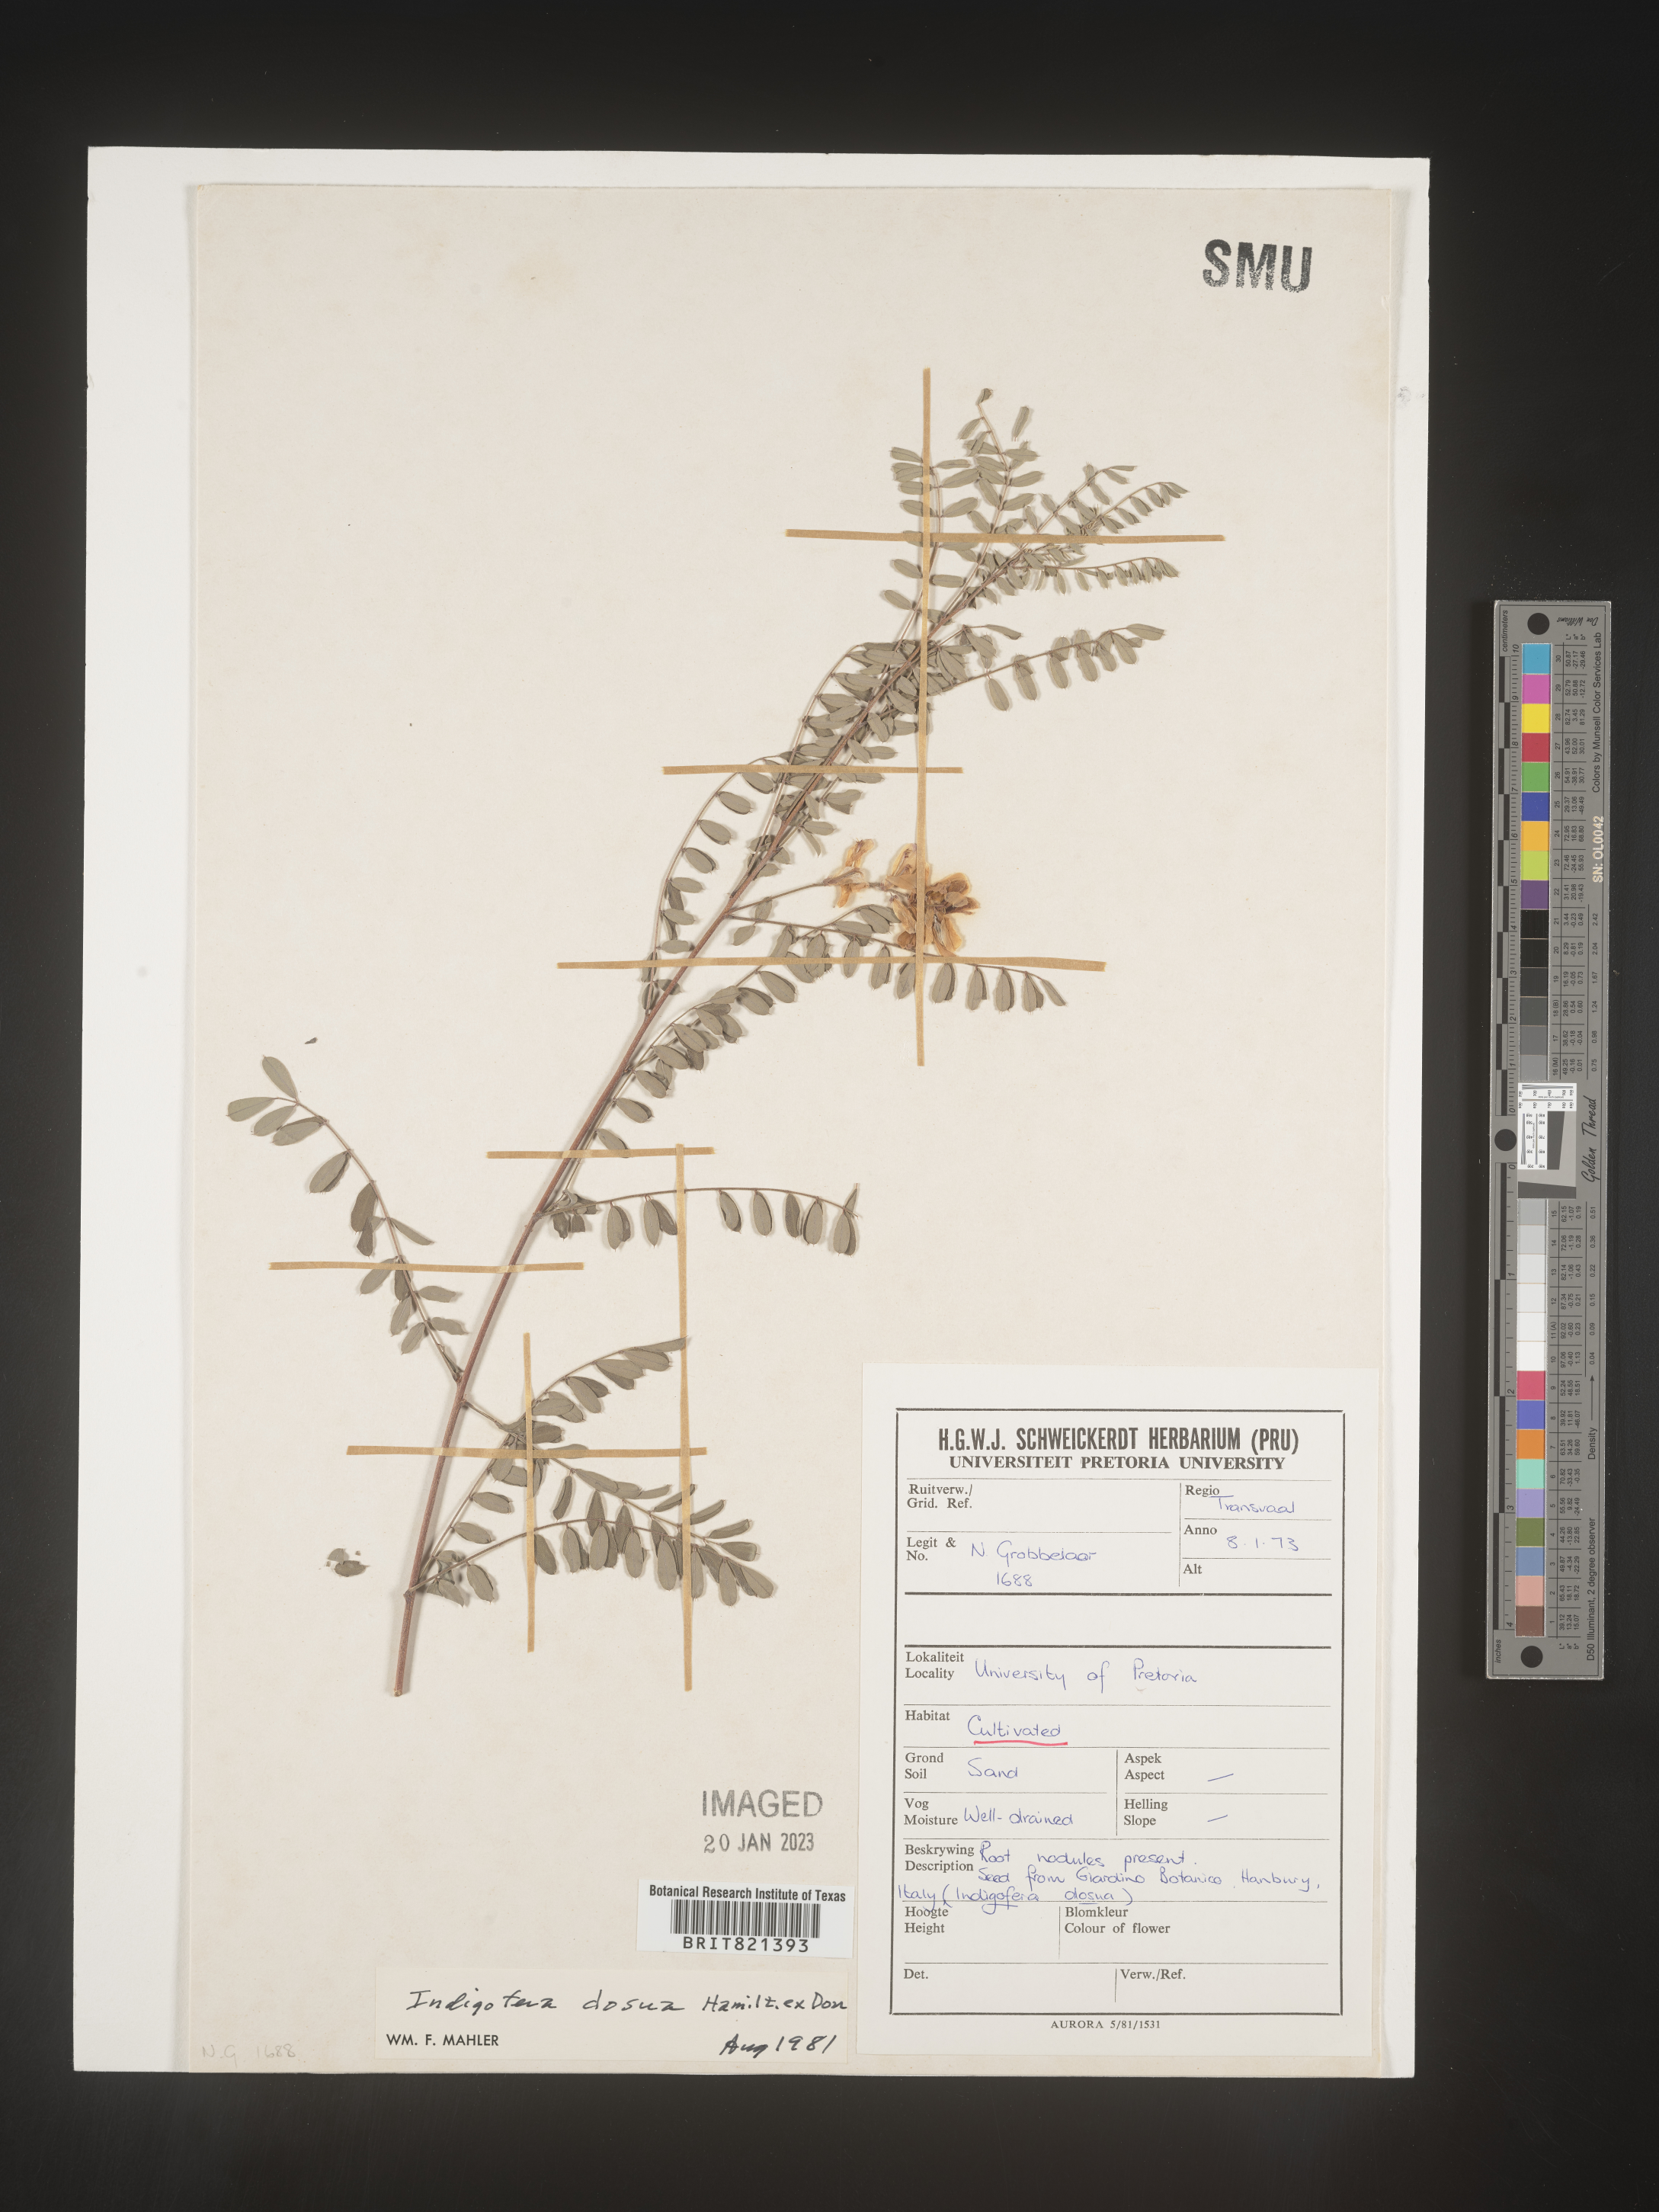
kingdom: Plantae
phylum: Tracheophyta
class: Magnoliopsida
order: Fabales
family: Fabaceae
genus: Indigofera
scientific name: Indigofera
